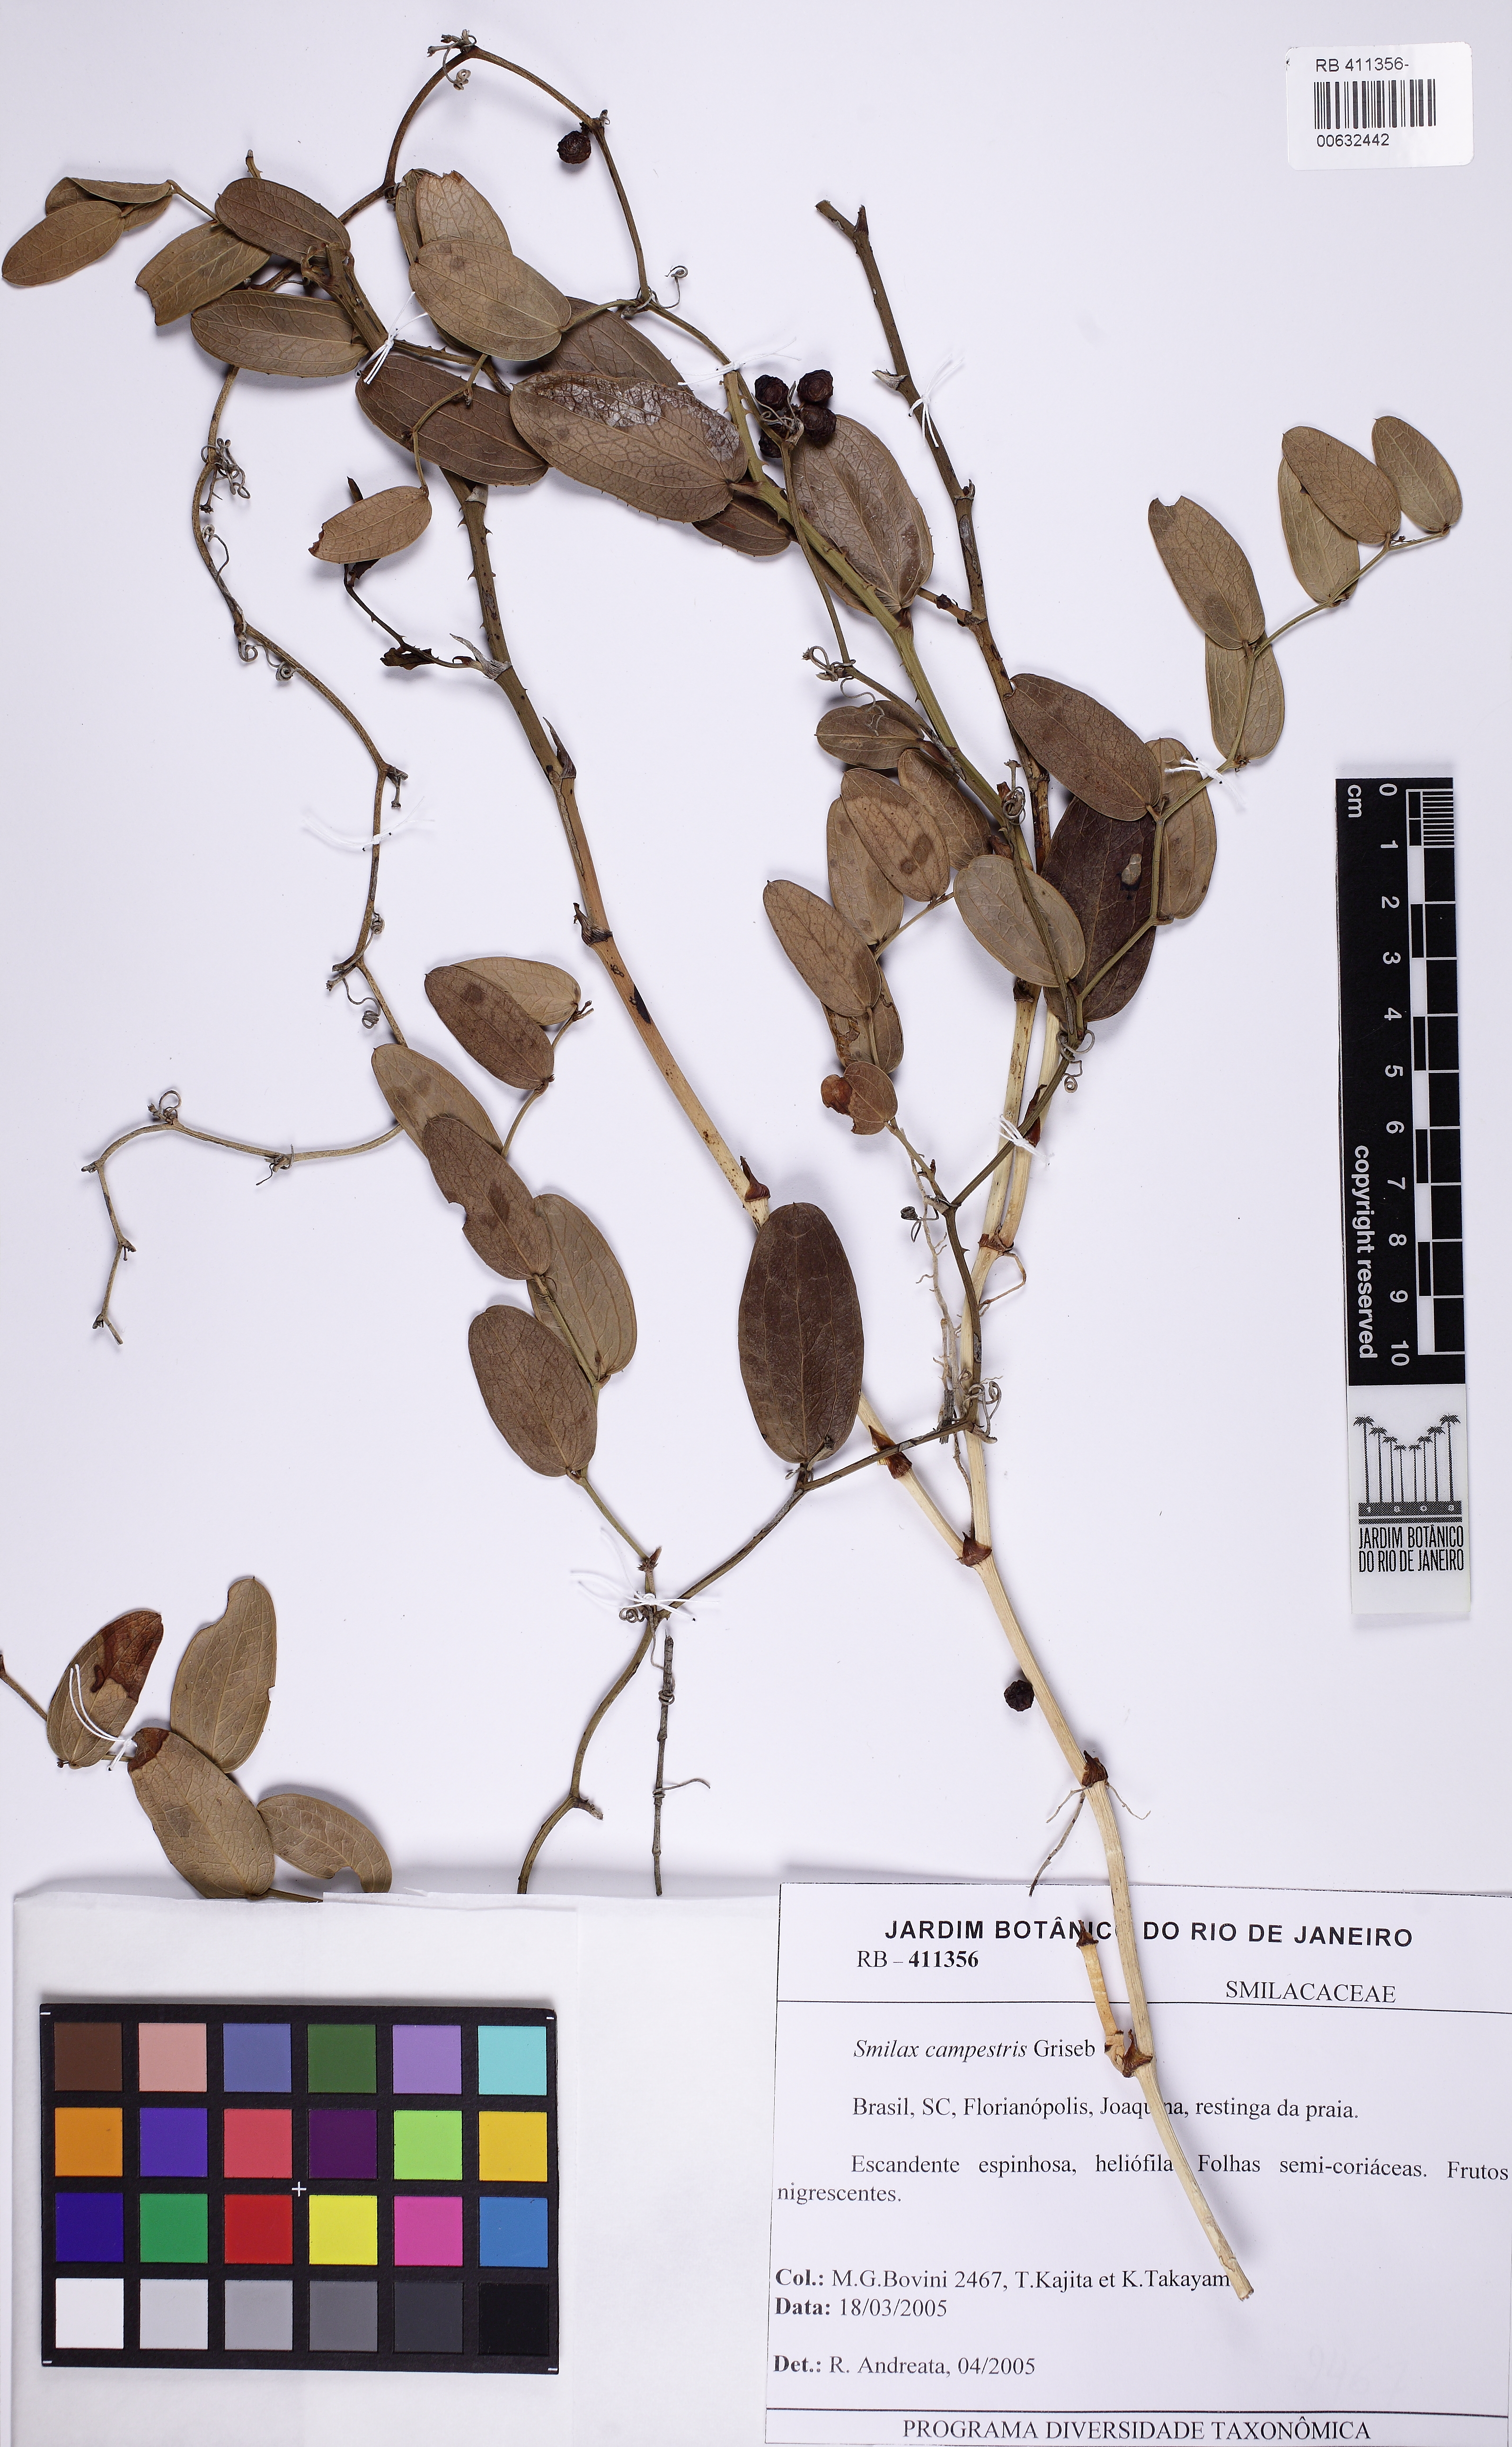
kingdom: Plantae
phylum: Tracheophyta
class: Liliopsida
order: Liliales
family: Smilacaceae
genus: Smilax
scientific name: Smilax campestris
